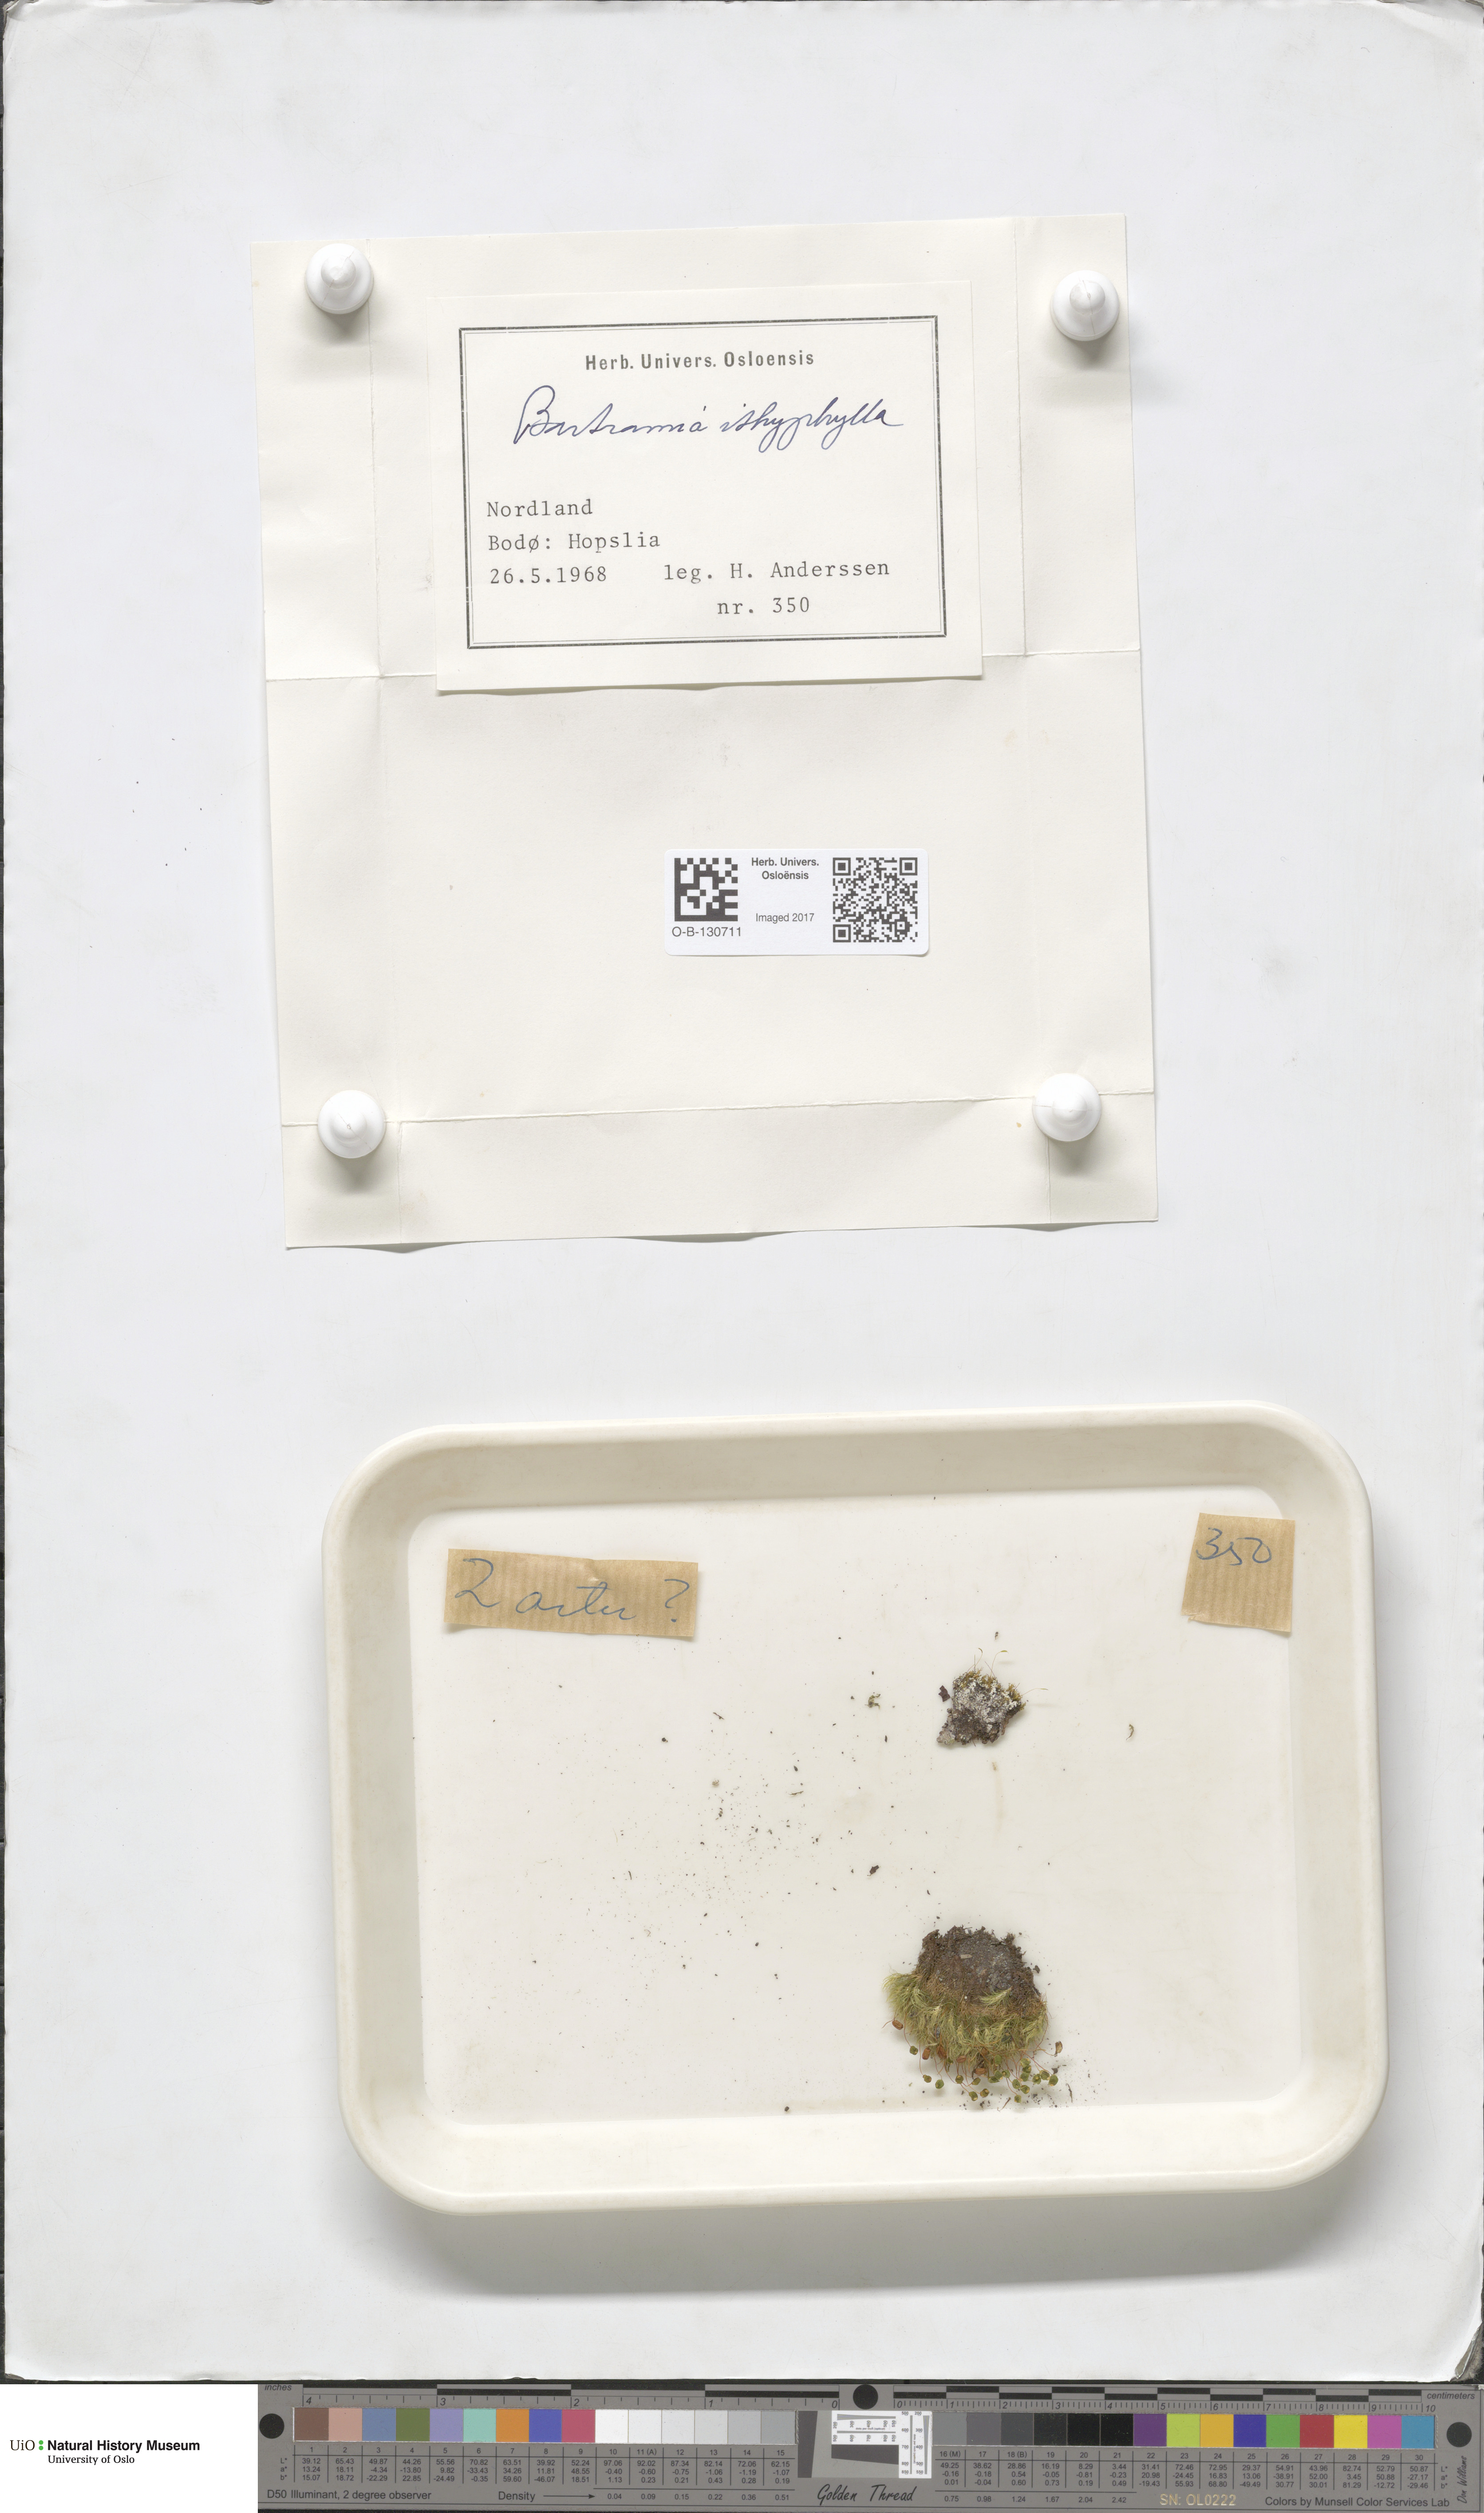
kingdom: Plantae
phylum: Bryophyta
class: Bryopsida
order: Bartramiales
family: Bartramiaceae
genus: Bartramia
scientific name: Bartramia ithyphylla
